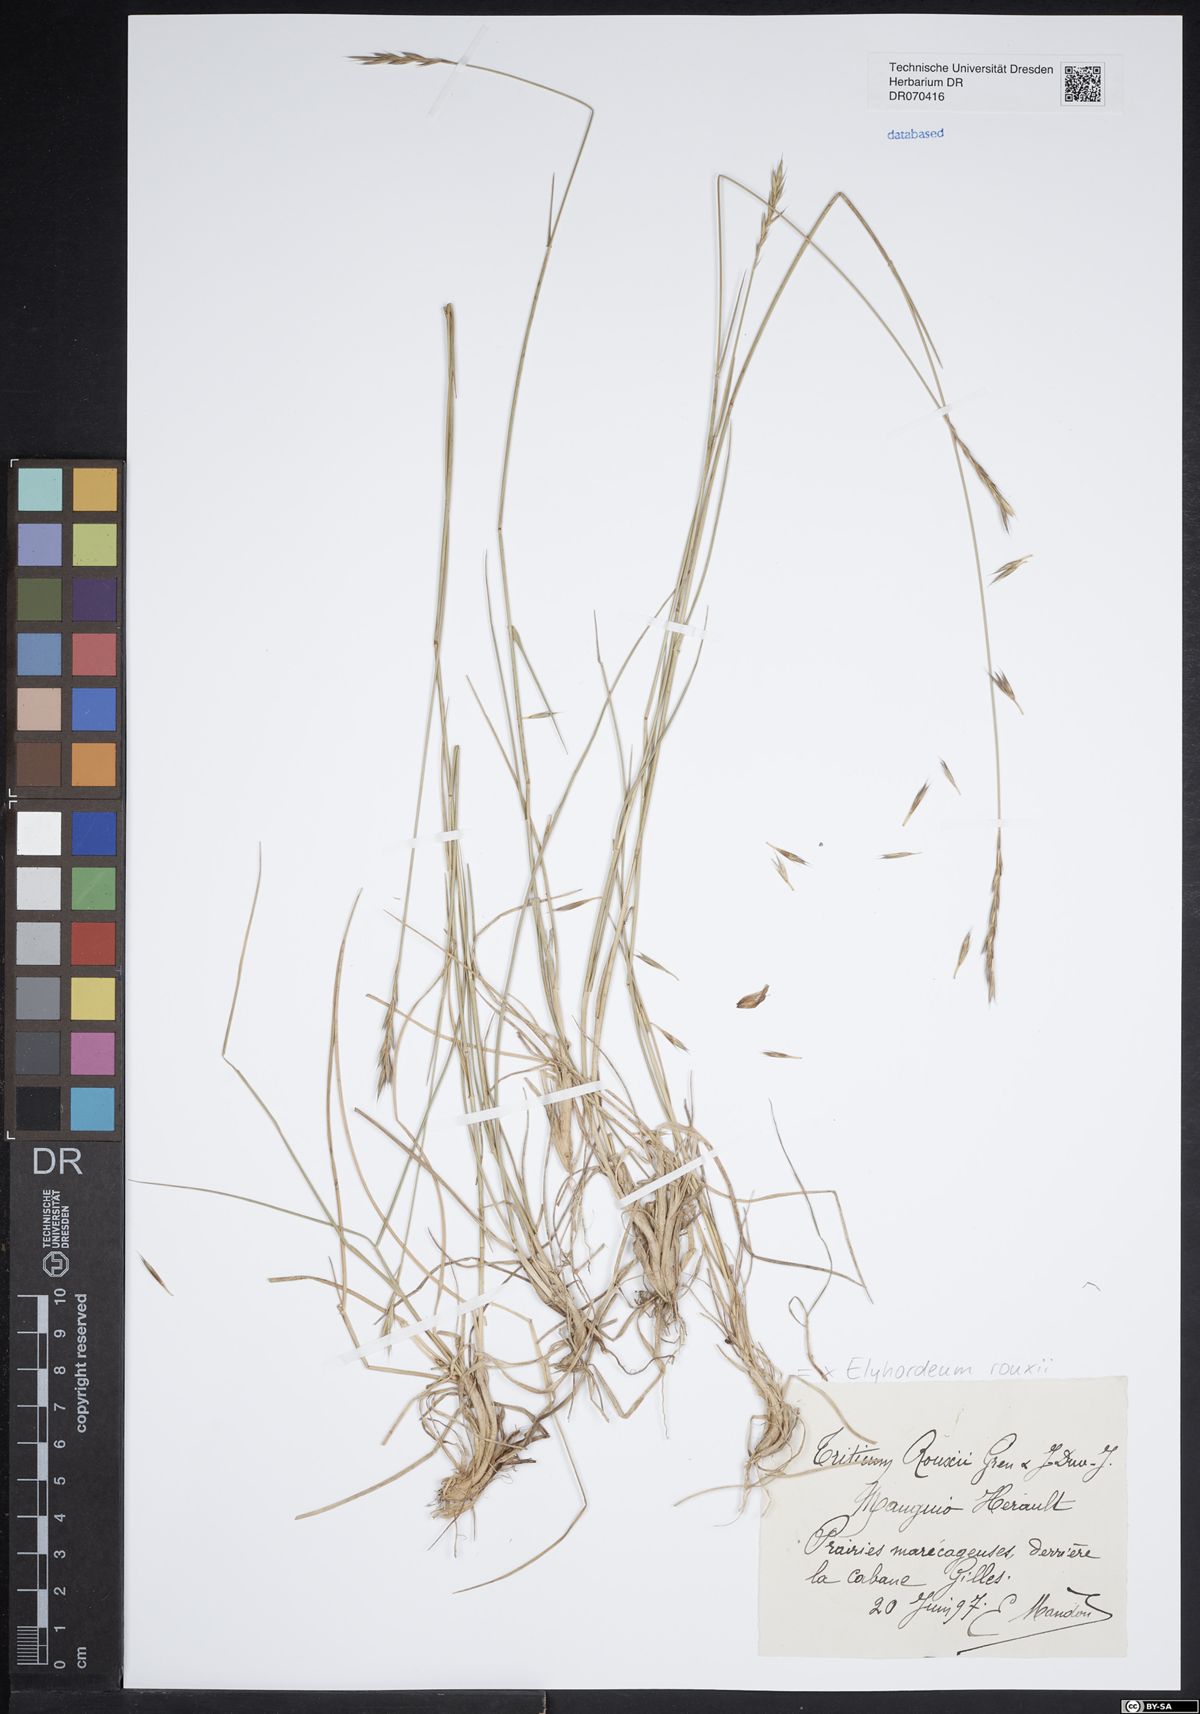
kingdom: Plantae
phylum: Tracheophyta
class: Liliopsida
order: Poales
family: Poaceae
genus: Elyhordeum
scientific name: Elyhordeum rouxii
